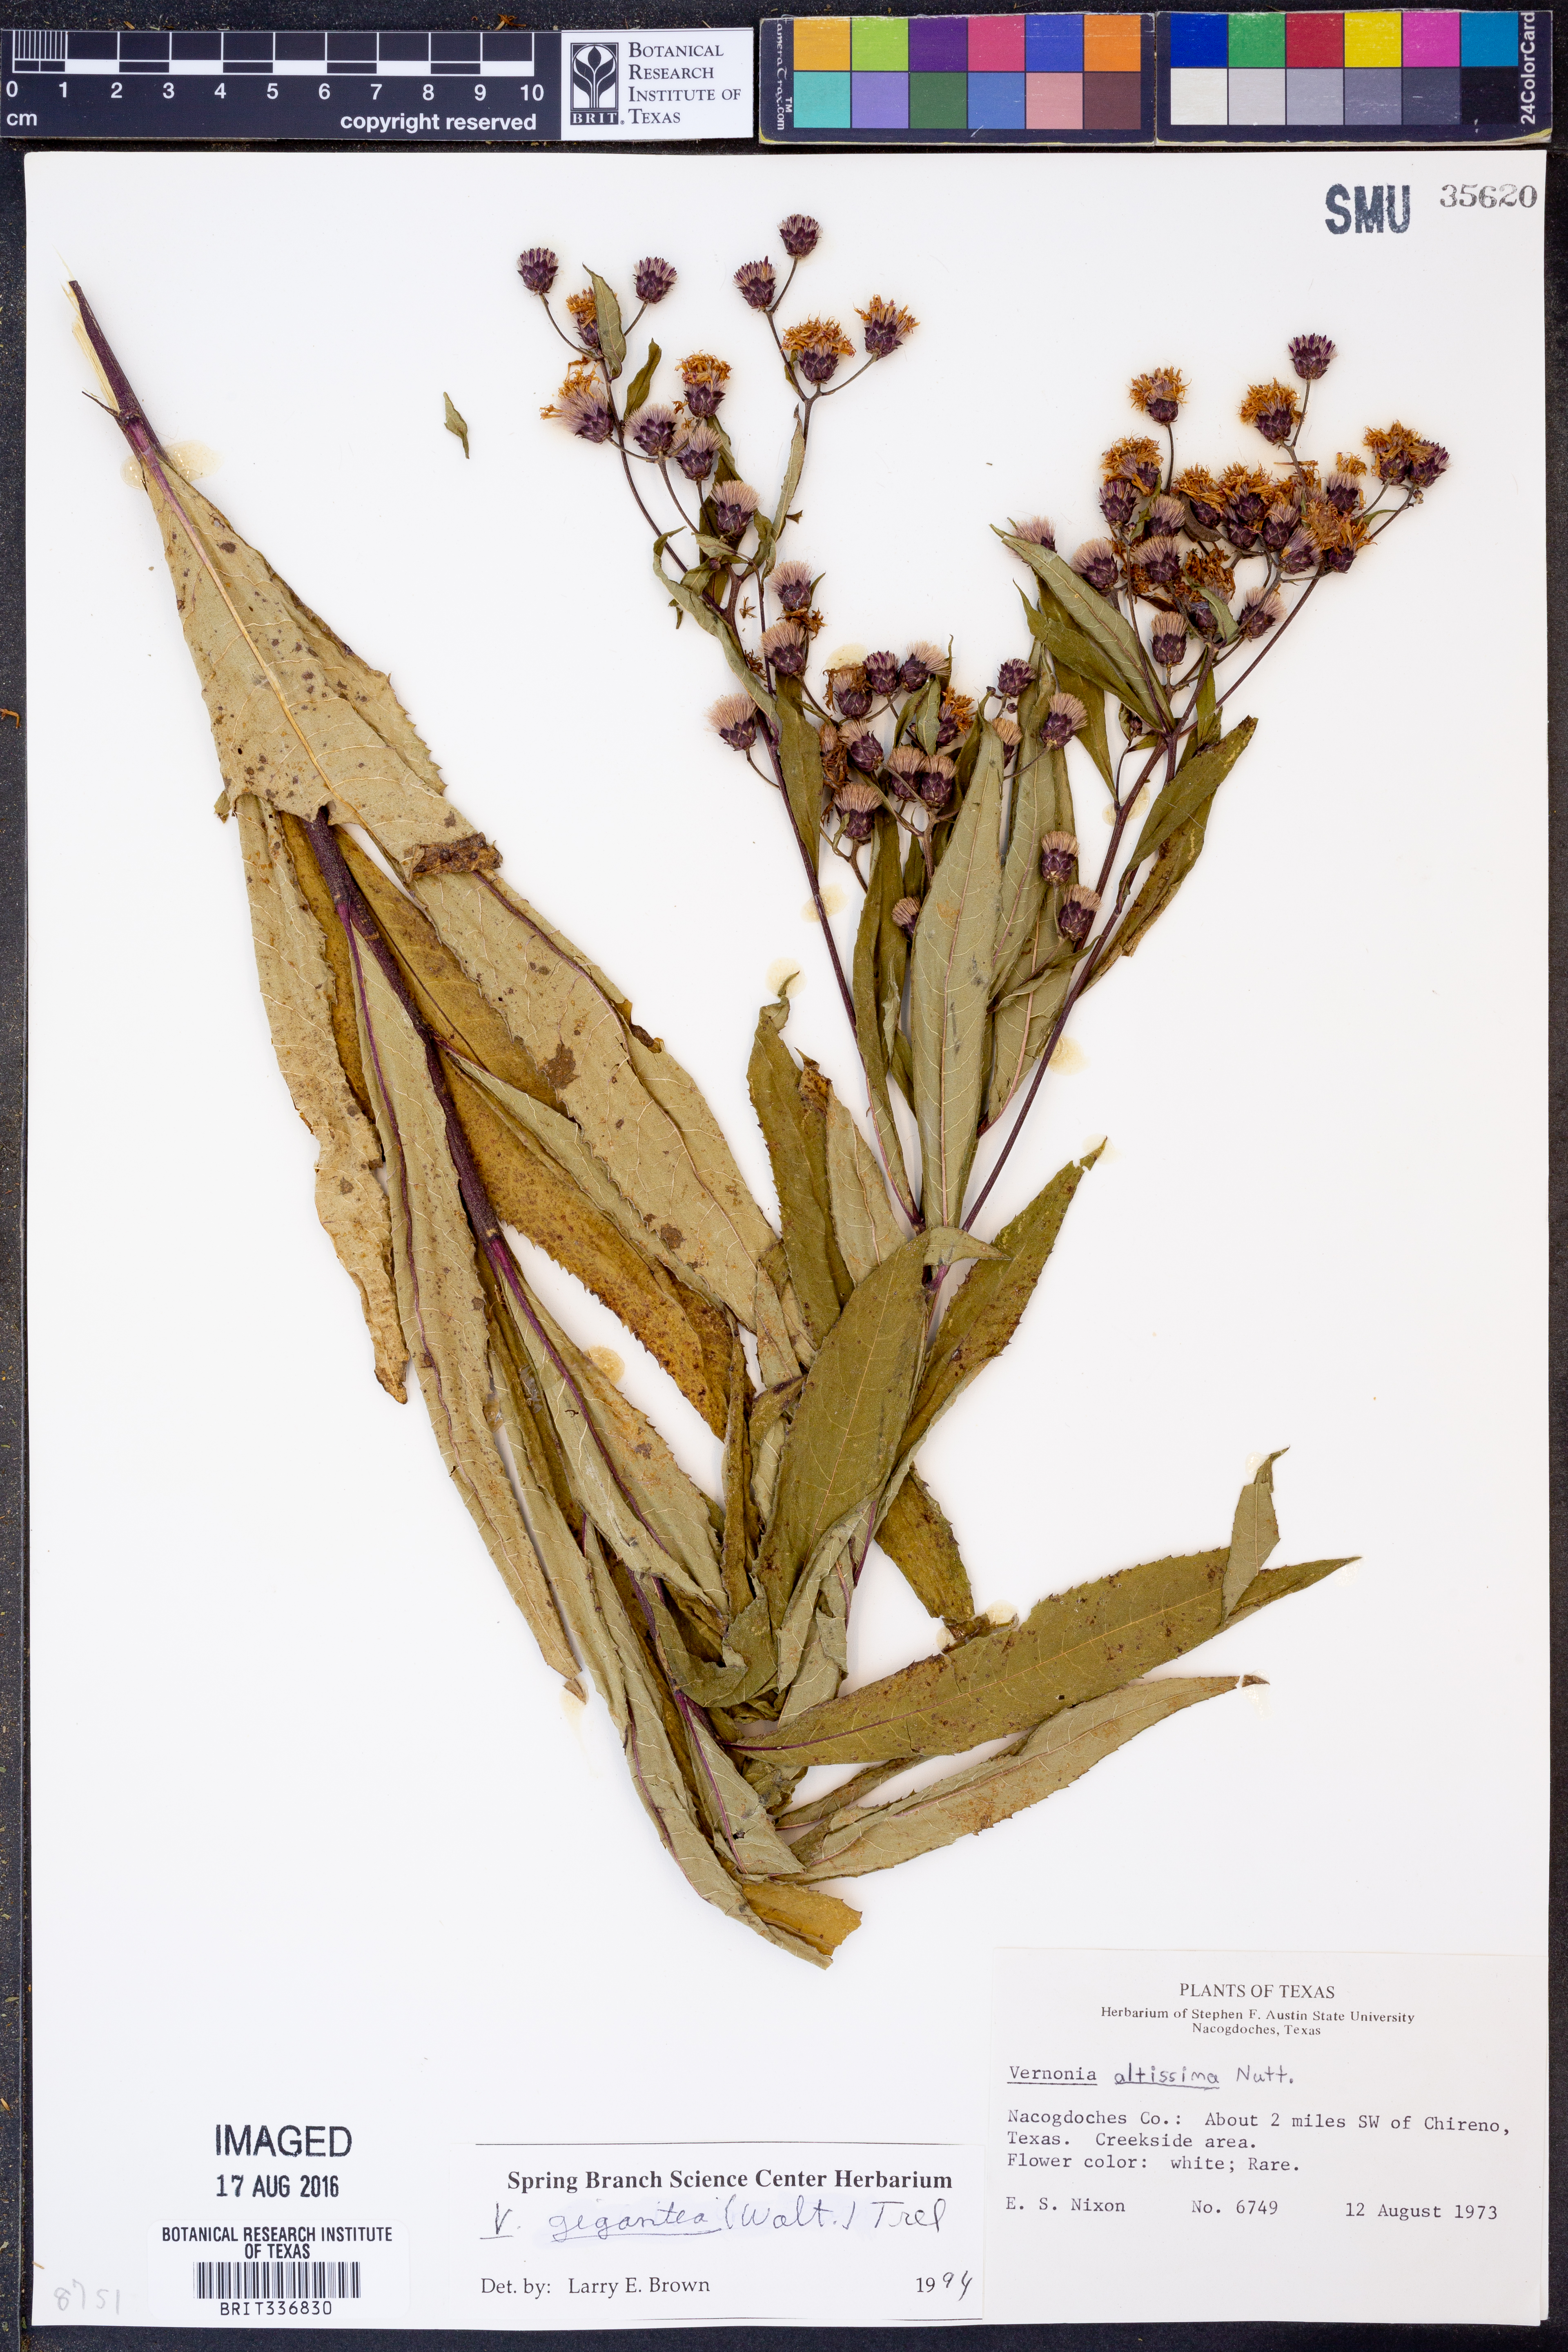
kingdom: Plantae
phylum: Tracheophyta
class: Magnoliopsida
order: Asterales
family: Asteraceae
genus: Vernonia
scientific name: Vernonia gigantea
